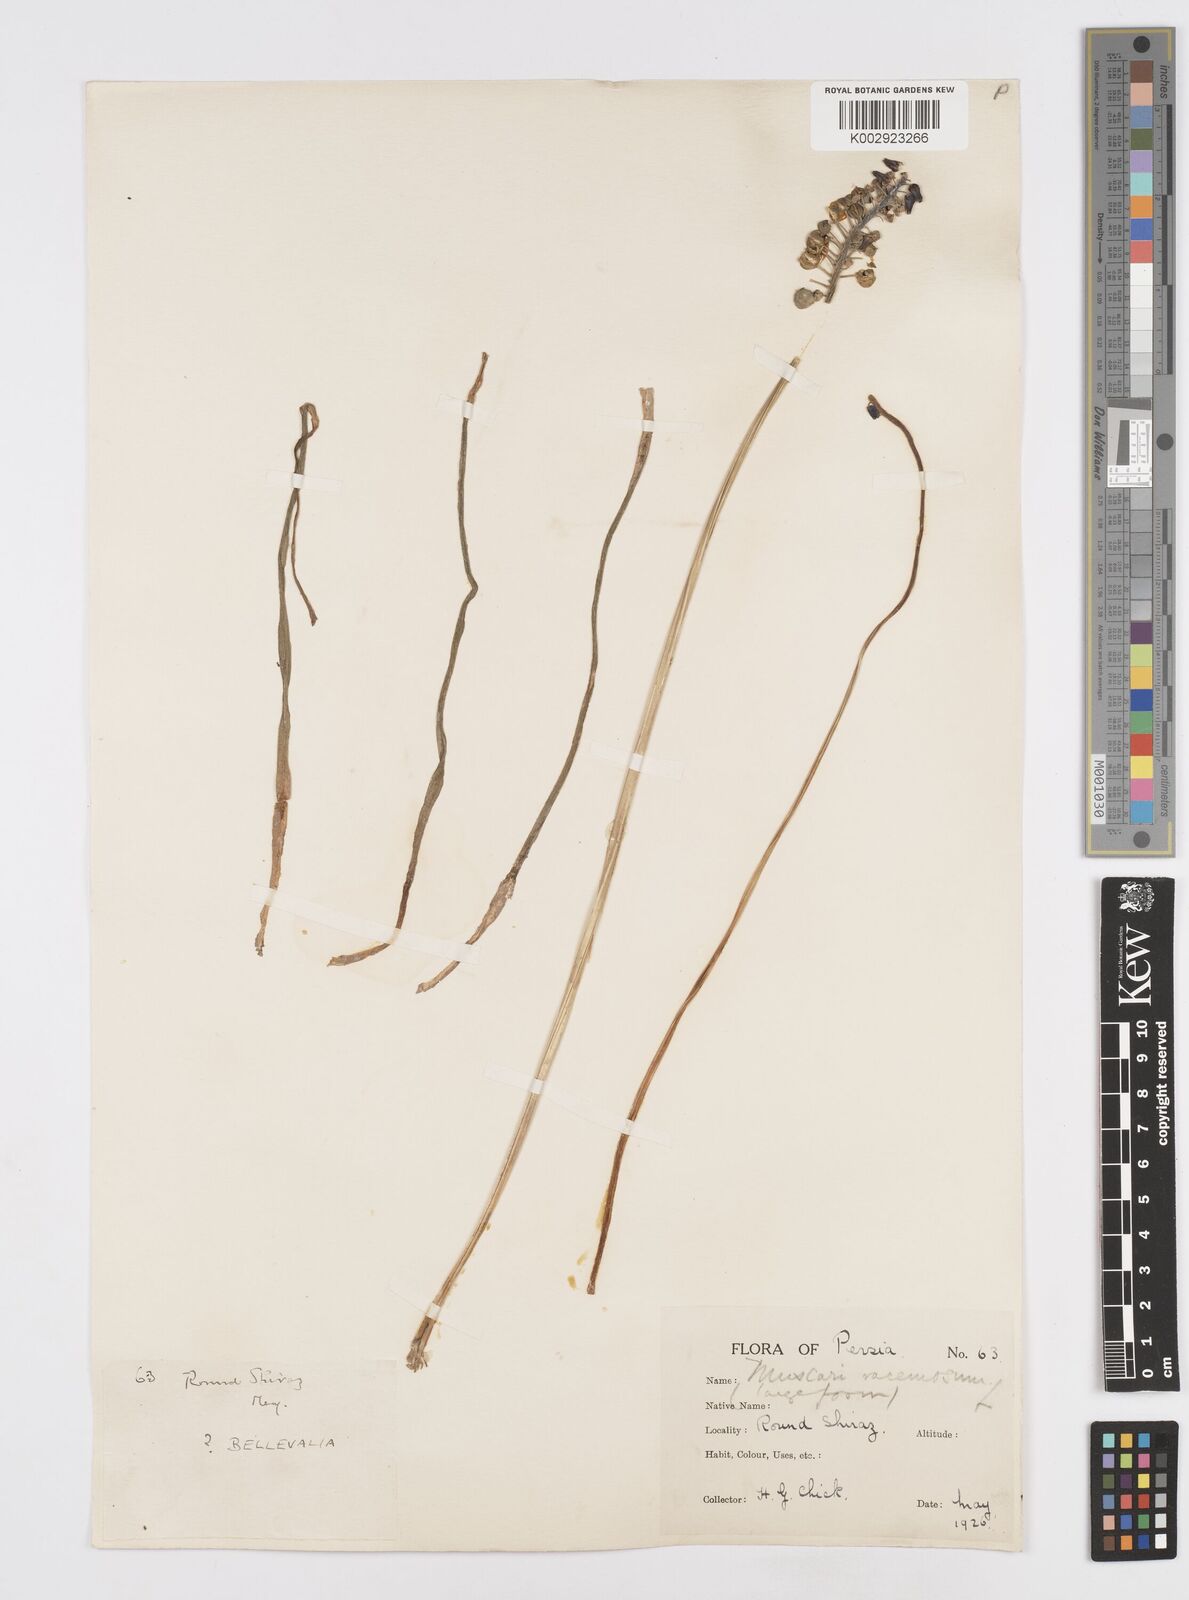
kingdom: Plantae
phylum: Tracheophyta
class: Liliopsida
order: Asparagales
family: Asparagaceae
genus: Muscari
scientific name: Muscari neglectum
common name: Grape-hyacinth
